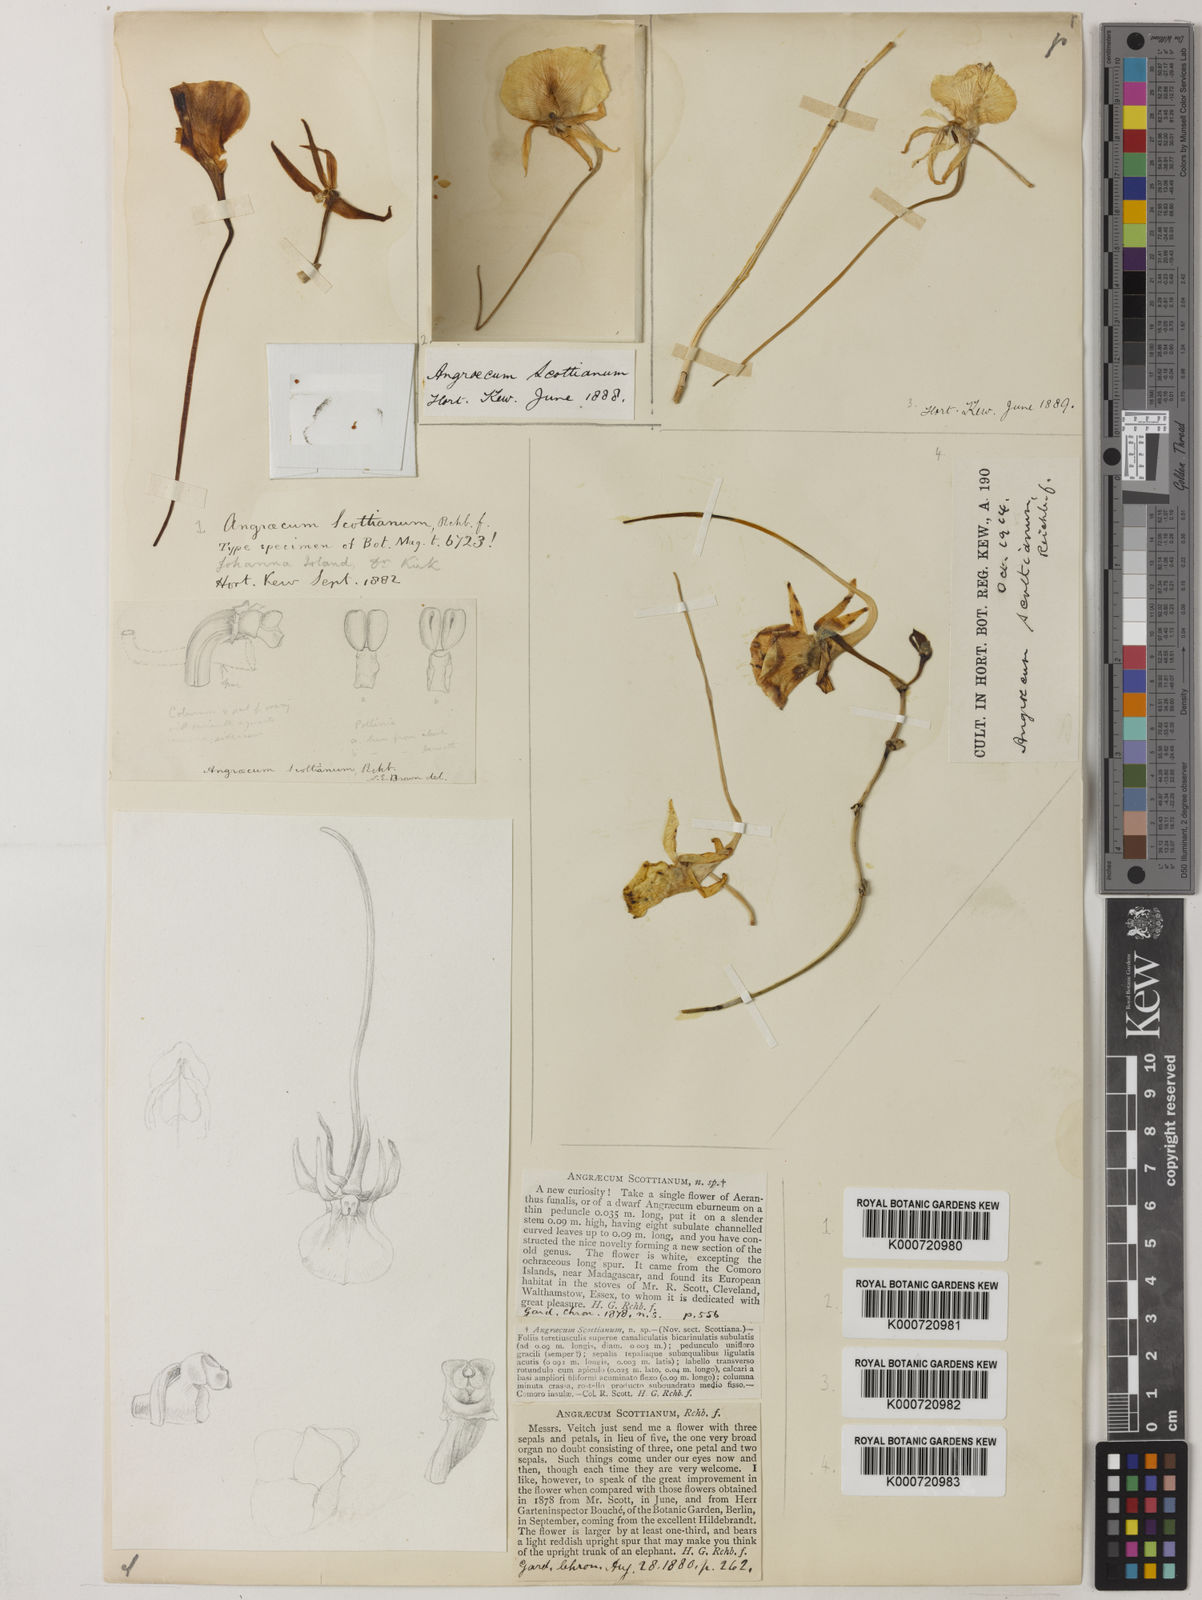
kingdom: Plantae
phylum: Tracheophyta
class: Liliopsida
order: Asparagales
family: Orchidaceae
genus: Angraecum
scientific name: Angraecum scottianum
